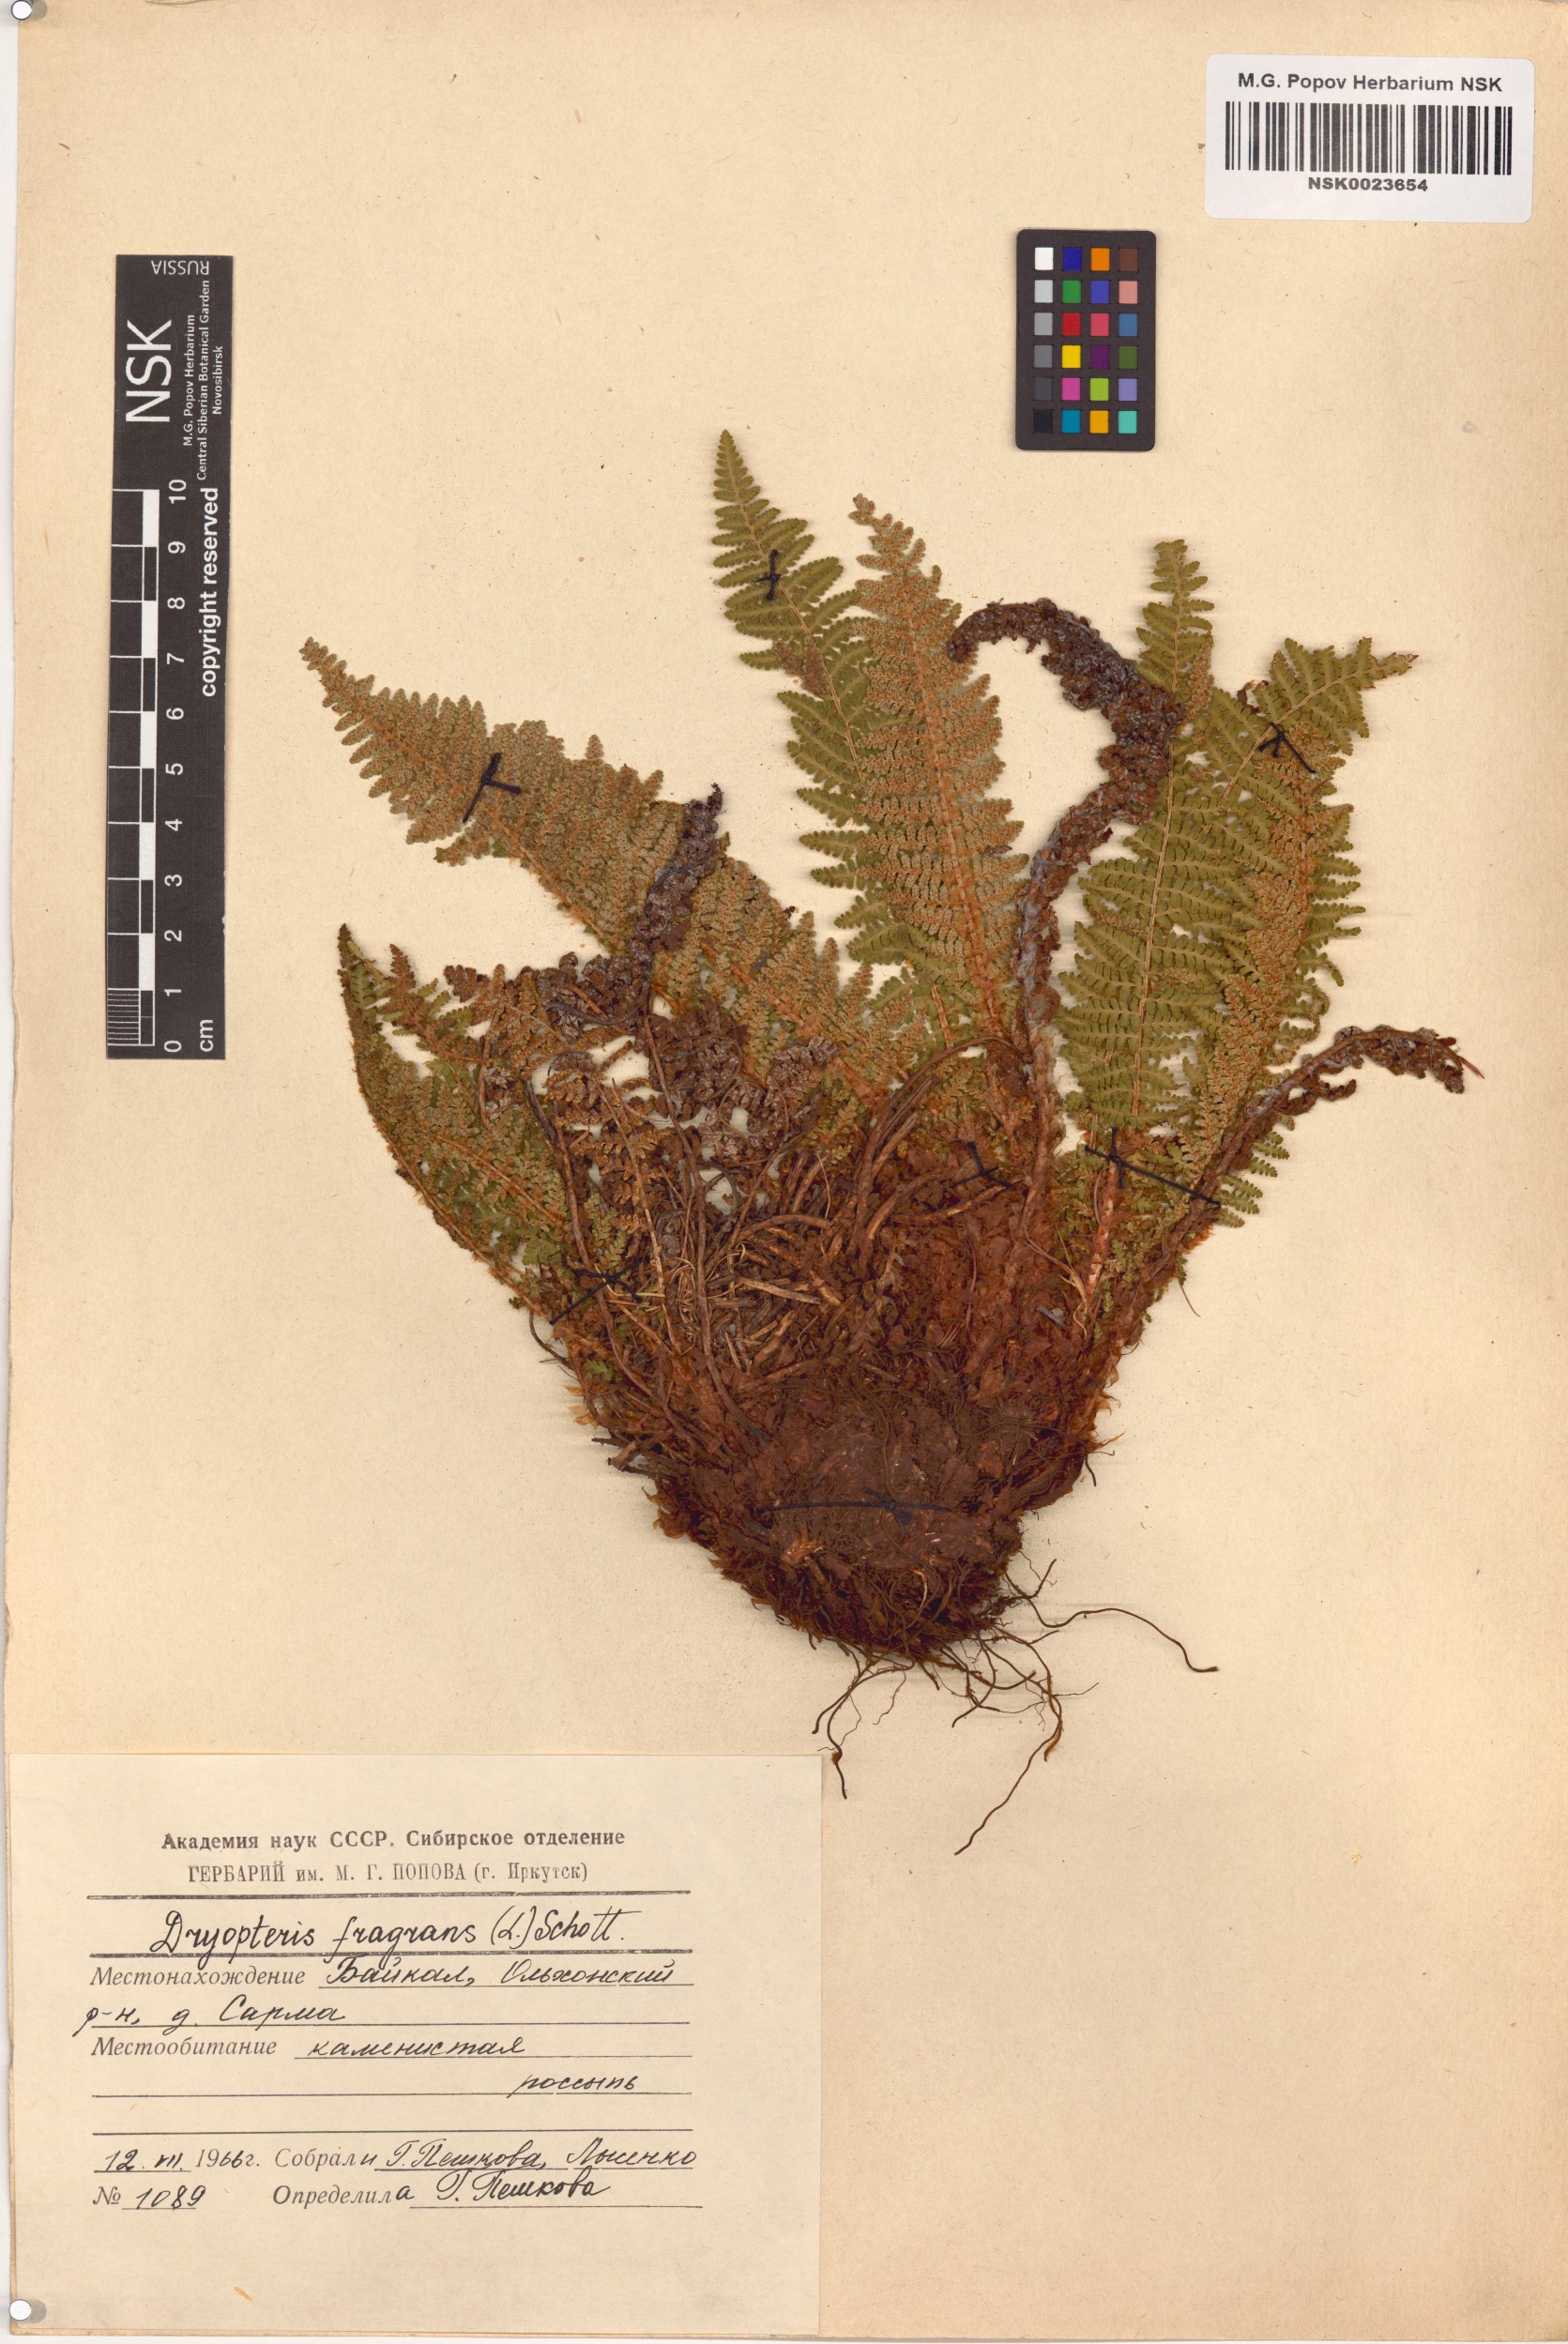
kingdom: Plantae
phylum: Tracheophyta
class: Polypodiopsida
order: Polypodiales
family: Dryopteridaceae
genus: Dryopteris
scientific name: Dryopteris fragrans
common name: Fragrant wood fern
